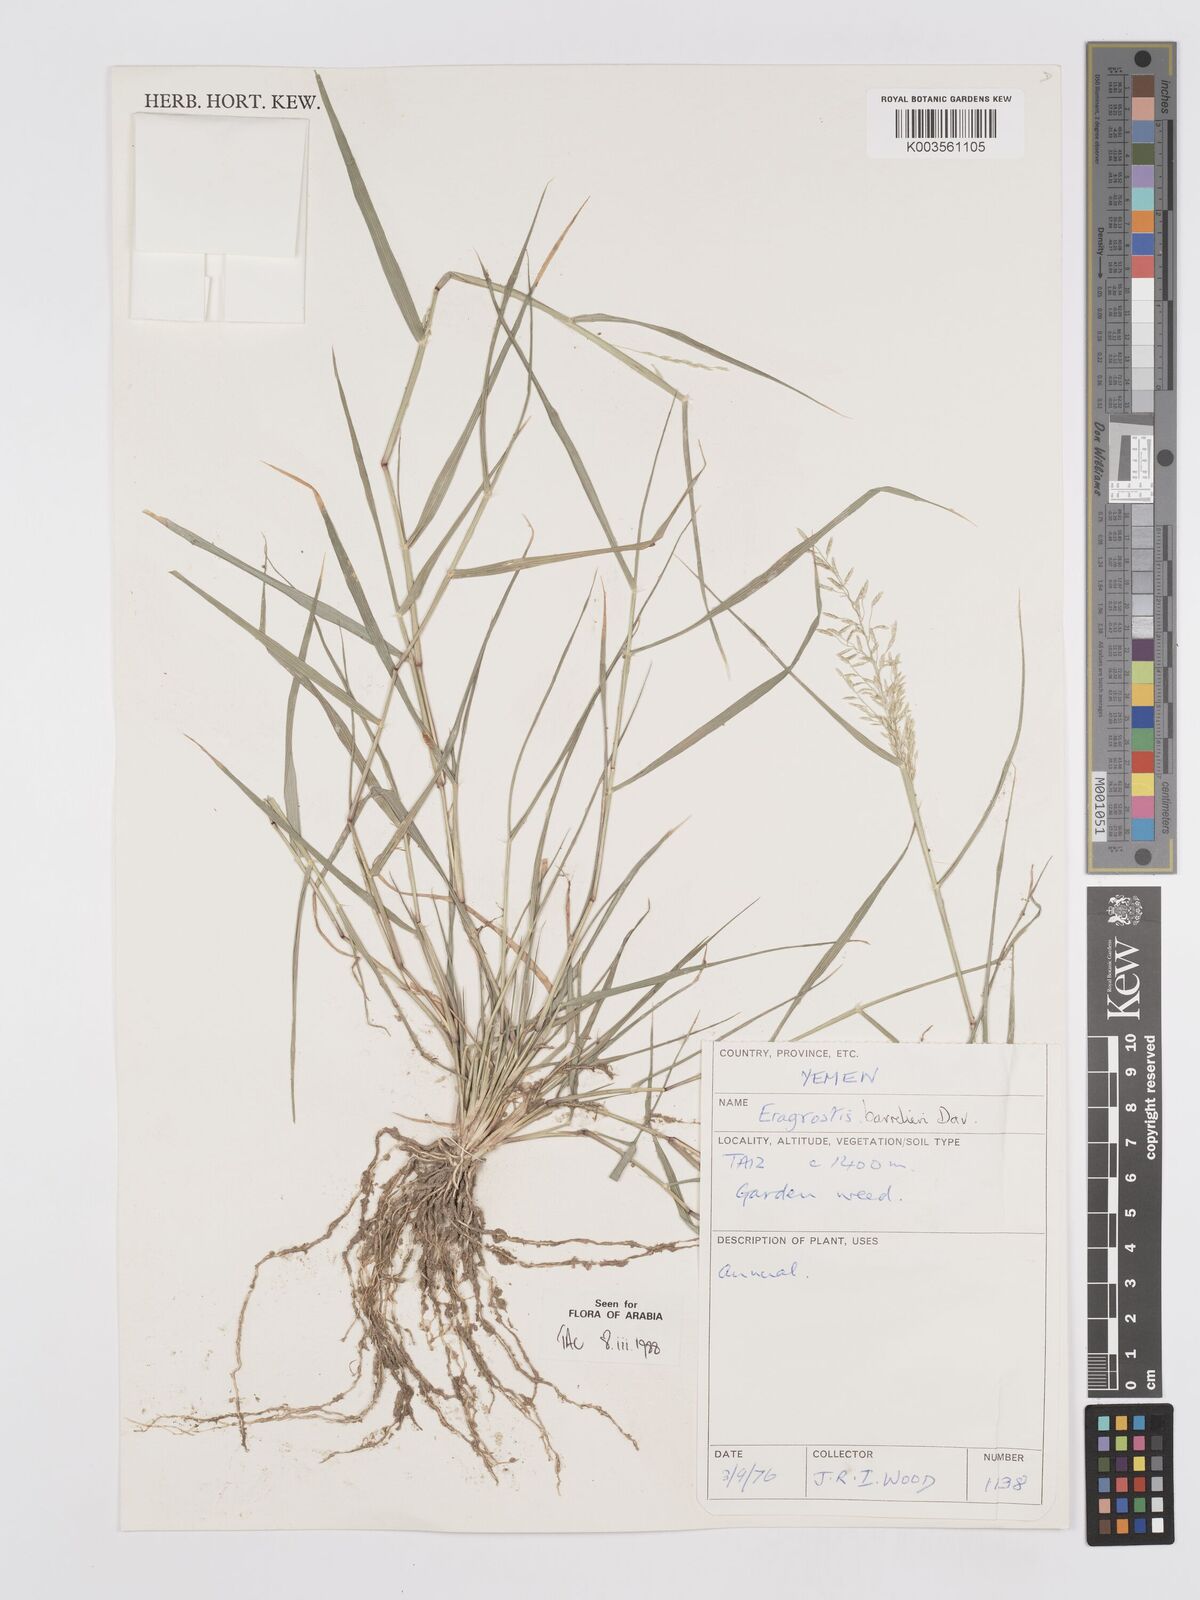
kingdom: Plantae
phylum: Tracheophyta
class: Liliopsida
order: Poales
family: Poaceae
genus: Eragrostis
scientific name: Eragrostis barrelieri
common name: Mediterranean lovegrass
